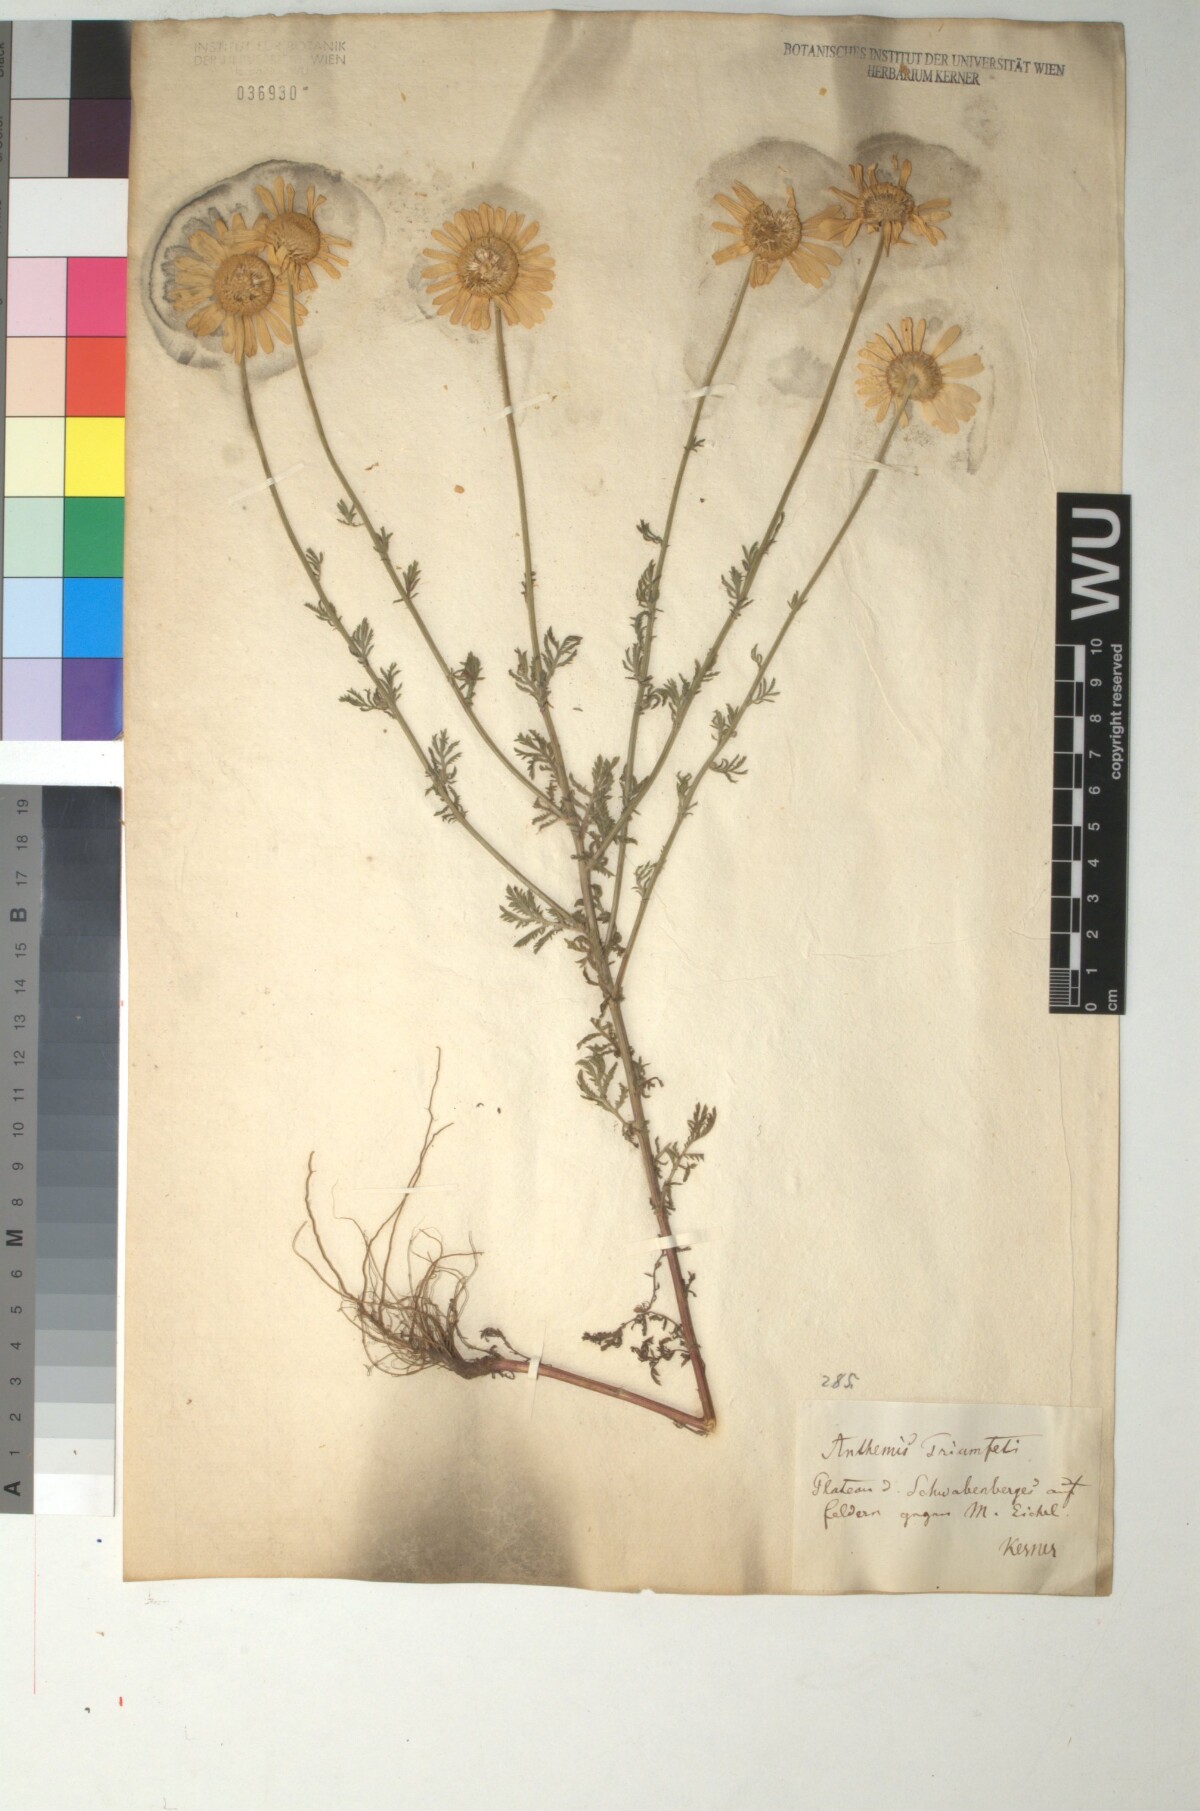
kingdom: Plantae
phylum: Tracheophyta
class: Magnoliopsida
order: Asterales
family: Asteraceae
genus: Cota
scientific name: Cota triumfetti
